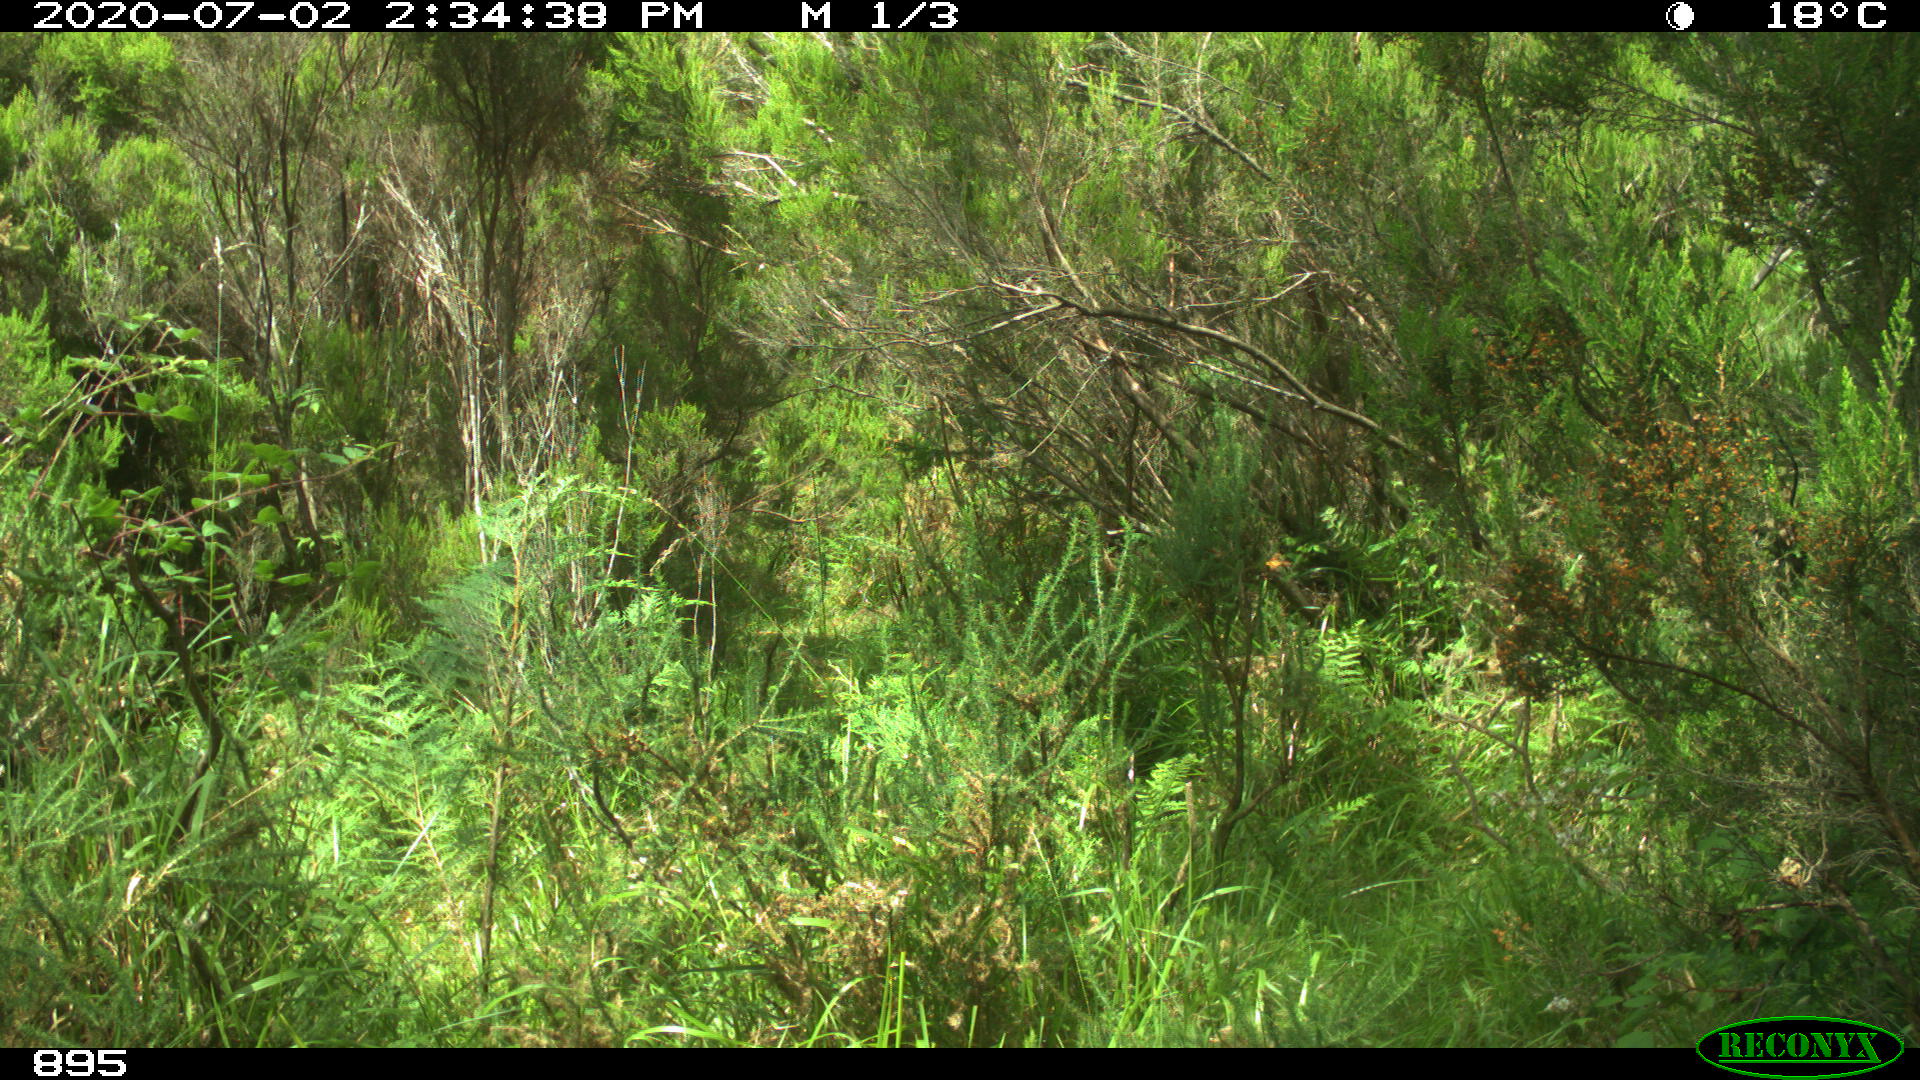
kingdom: Animalia
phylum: Chordata
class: Mammalia
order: Artiodactyla
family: Bovidae
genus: Bos
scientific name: Bos taurus
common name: Domesticated cattle
